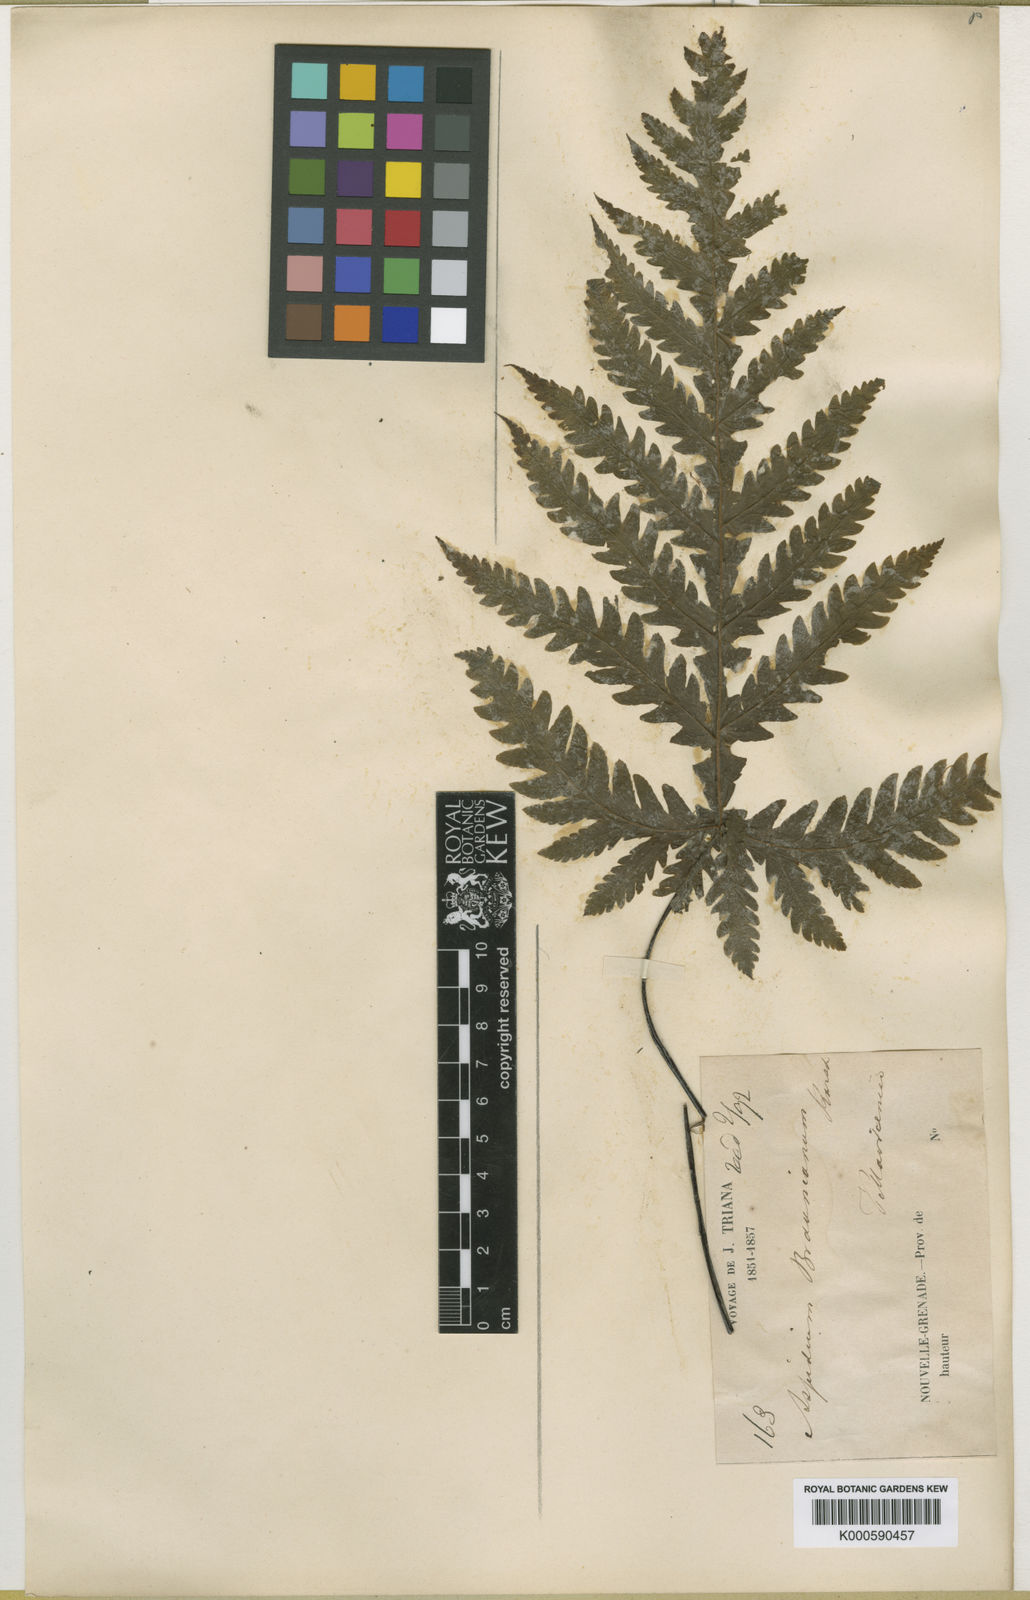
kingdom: Plantae
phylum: Tracheophyta
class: Polypodiopsida
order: Polypodiales
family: Tectariaceae
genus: Hypoderris
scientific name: Hypoderris brauniana
